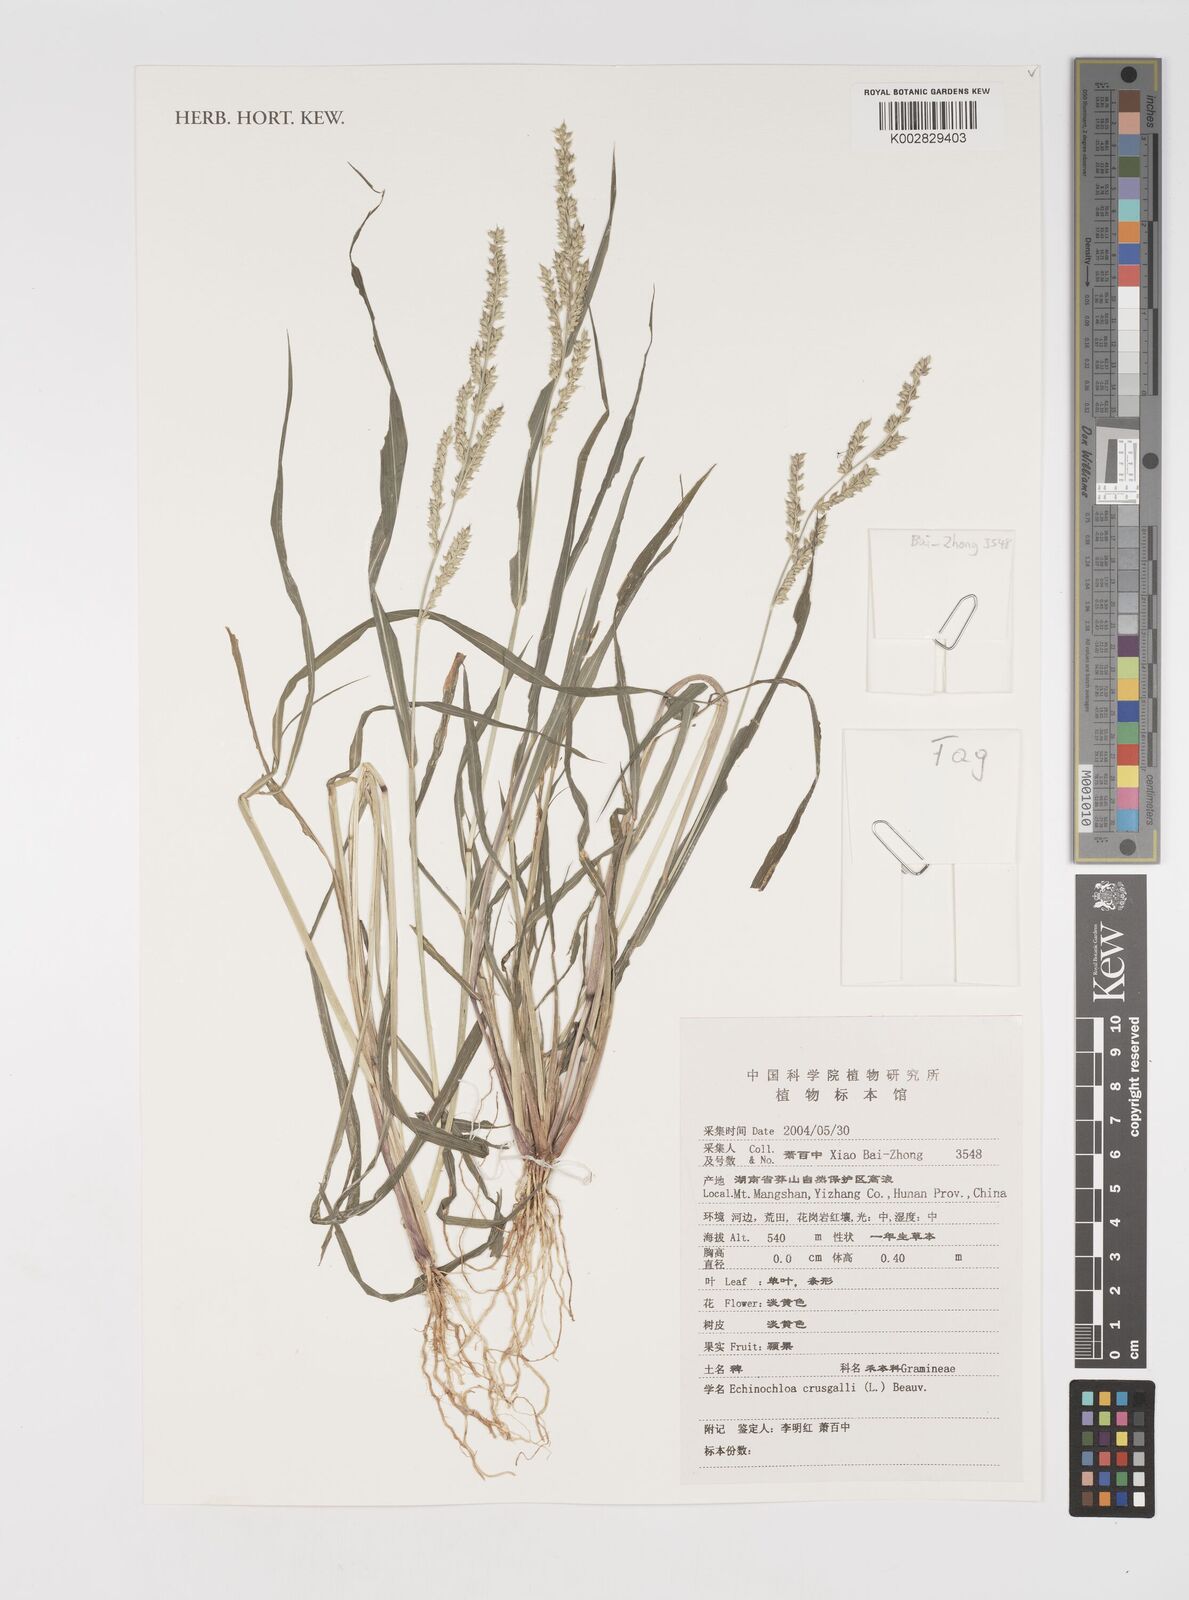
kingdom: Plantae
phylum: Tracheophyta
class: Liliopsida
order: Poales
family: Poaceae
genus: Echinochloa
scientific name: Echinochloa crus-galli
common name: Cockspur
